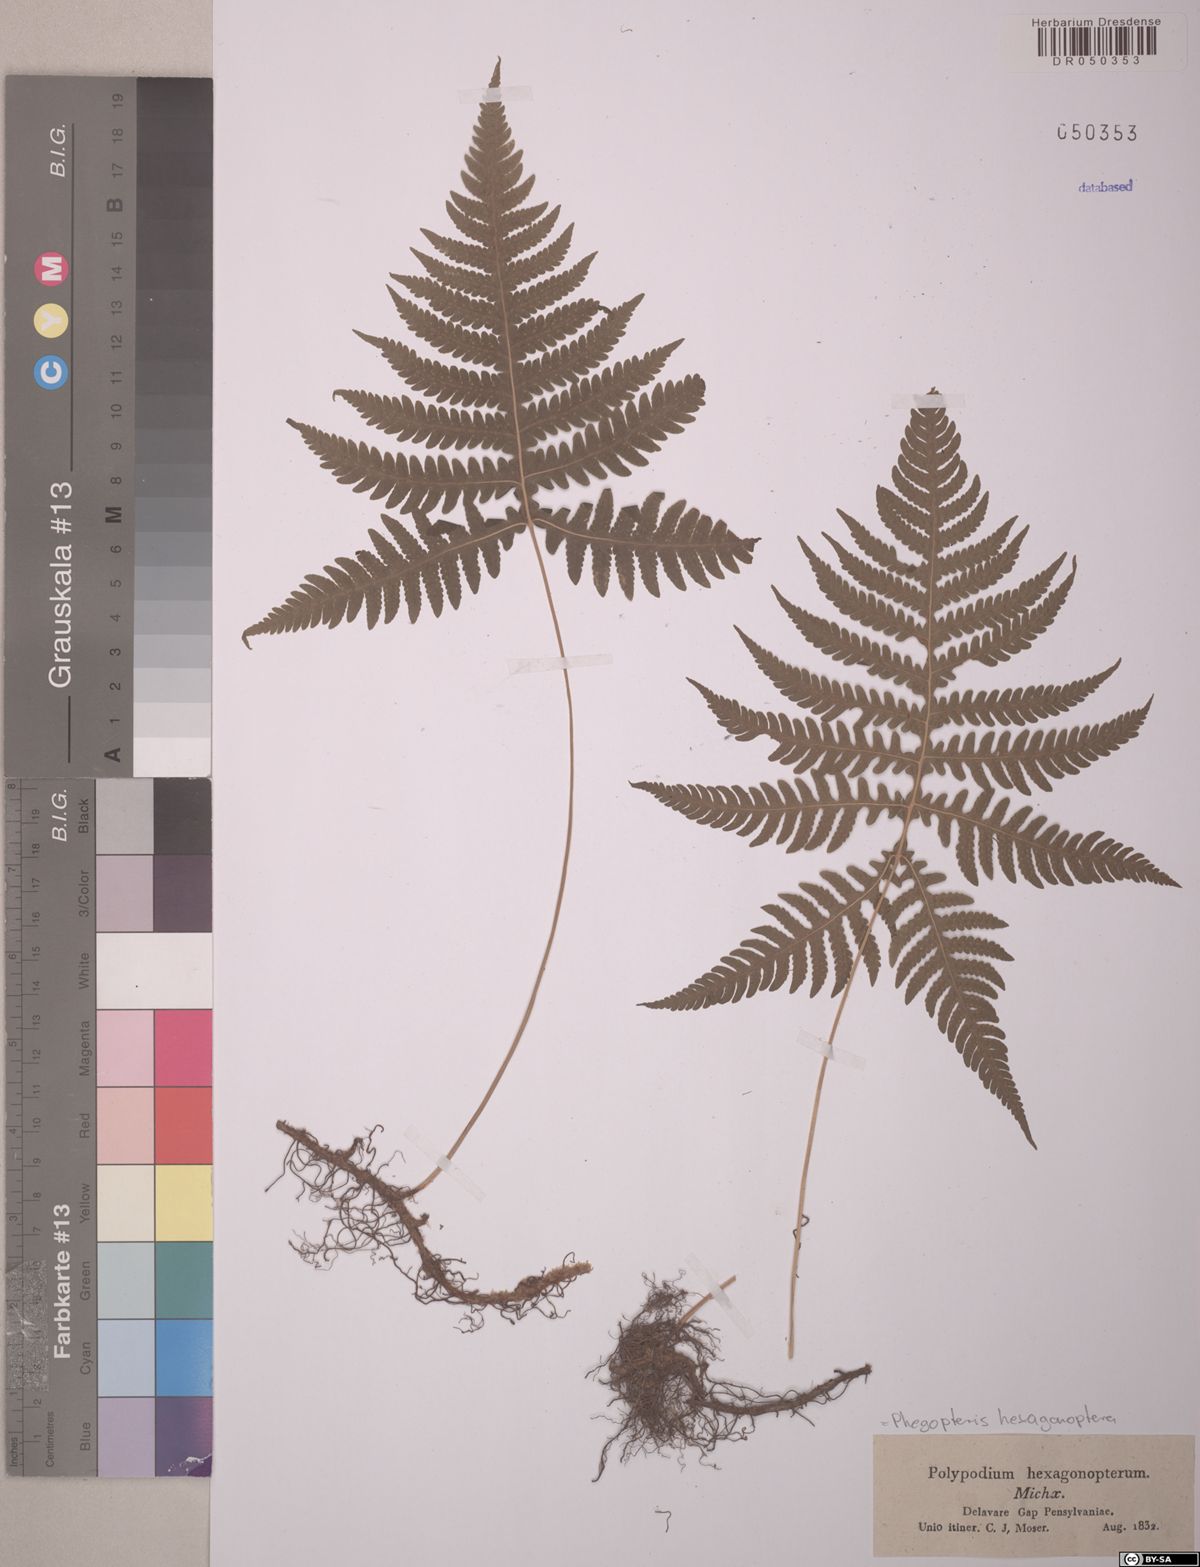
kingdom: Plantae
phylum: Tracheophyta
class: Polypodiopsida
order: Polypodiales
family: Thelypteridaceae
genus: Phegopteris
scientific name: Phegopteris hexagonoptera
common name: Broad beech fern
